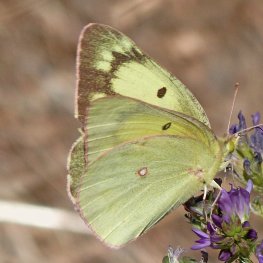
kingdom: Animalia
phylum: Arthropoda
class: Insecta
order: Lepidoptera
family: Pieridae
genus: Colias
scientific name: Colias interior
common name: Pink-edged Sulphur
